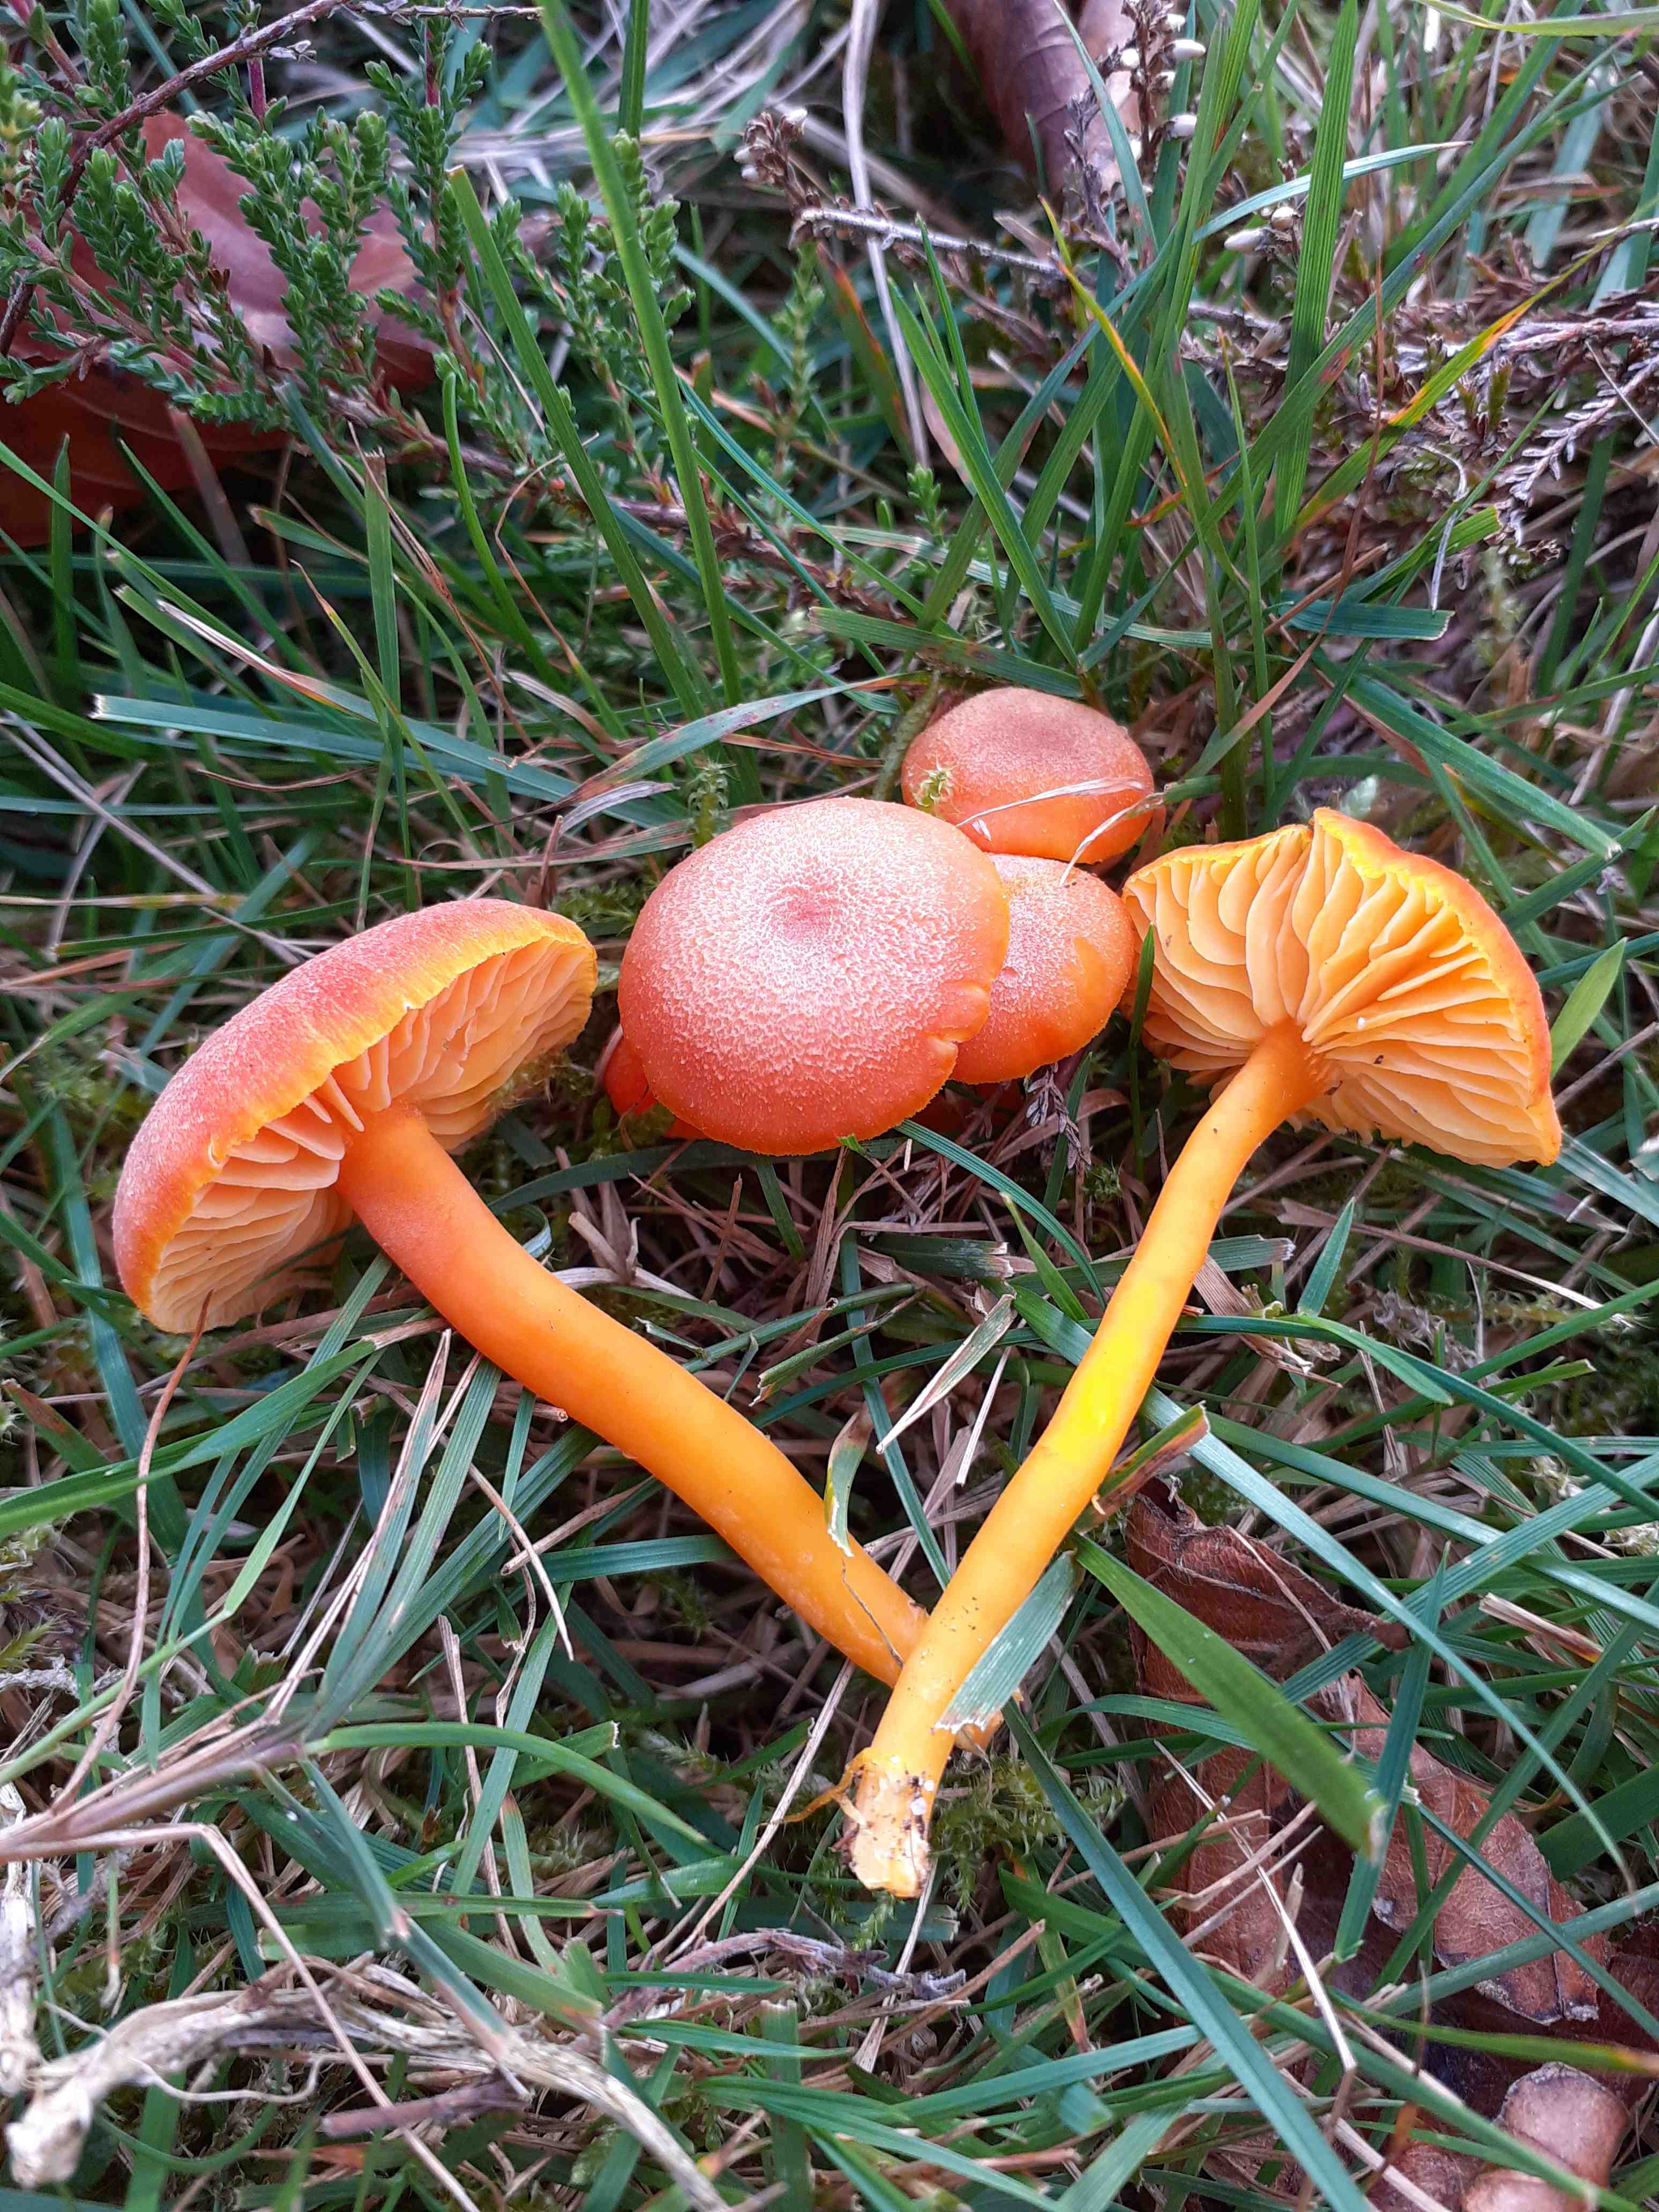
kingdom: Fungi
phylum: Basidiomycota
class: Agaricomycetes
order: Agaricales
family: Hygrophoraceae
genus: Hygrocybe
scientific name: Hygrocybe miniata
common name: mønje-vokshat
